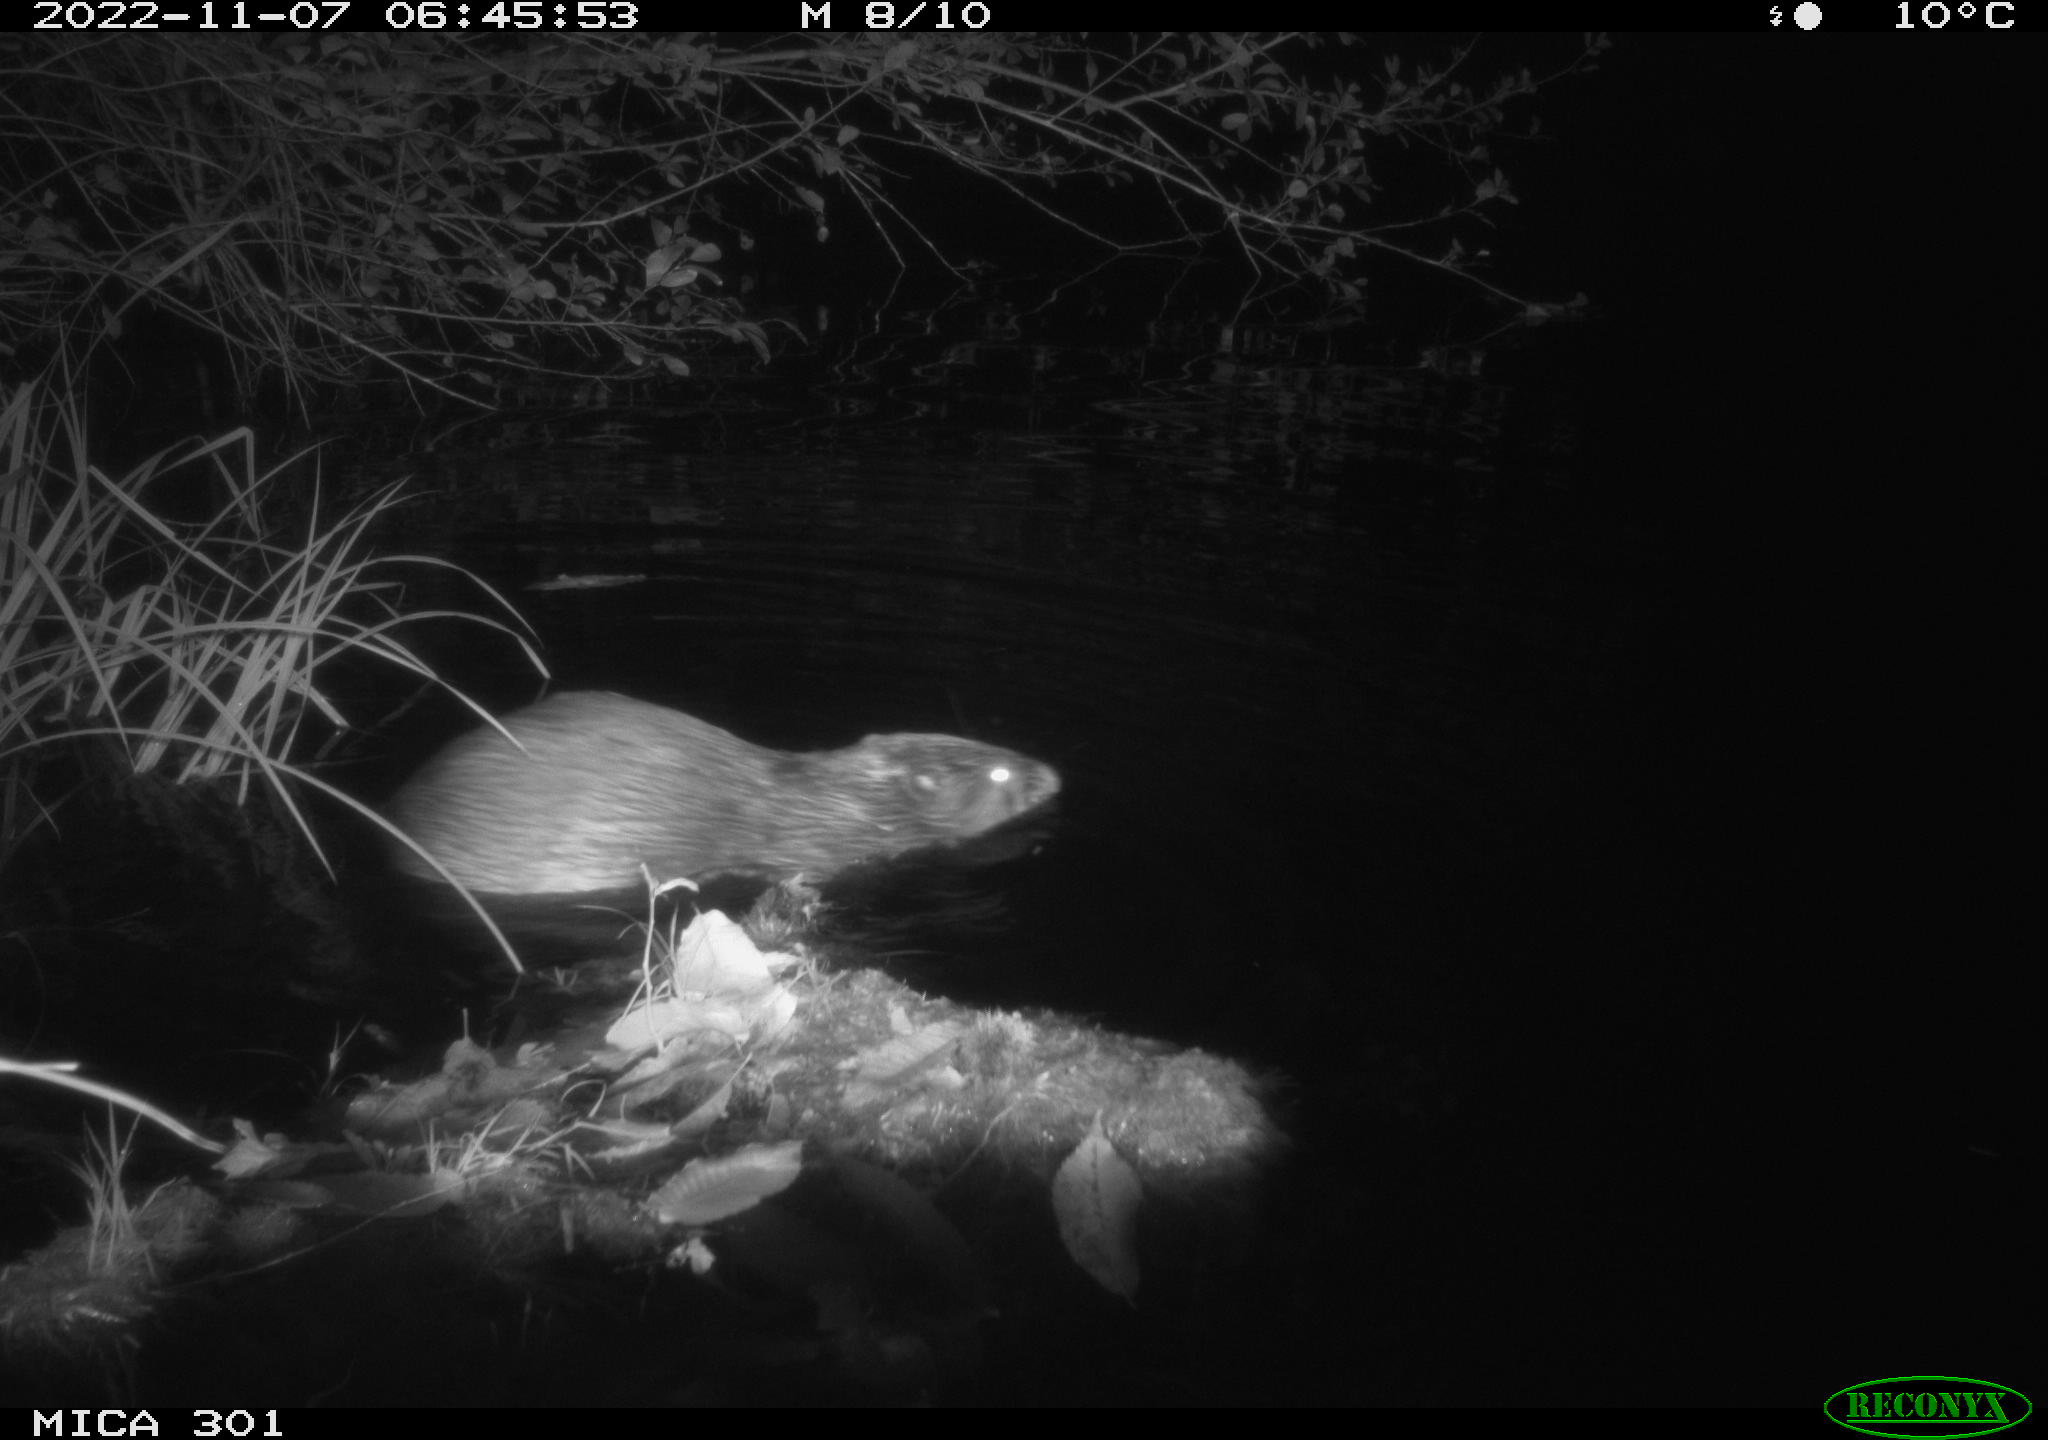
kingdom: Animalia
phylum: Chordata
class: Mammalia
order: Rodentia
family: Castoridae
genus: Castor
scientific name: Castor fiber
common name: Eurasian beaver
